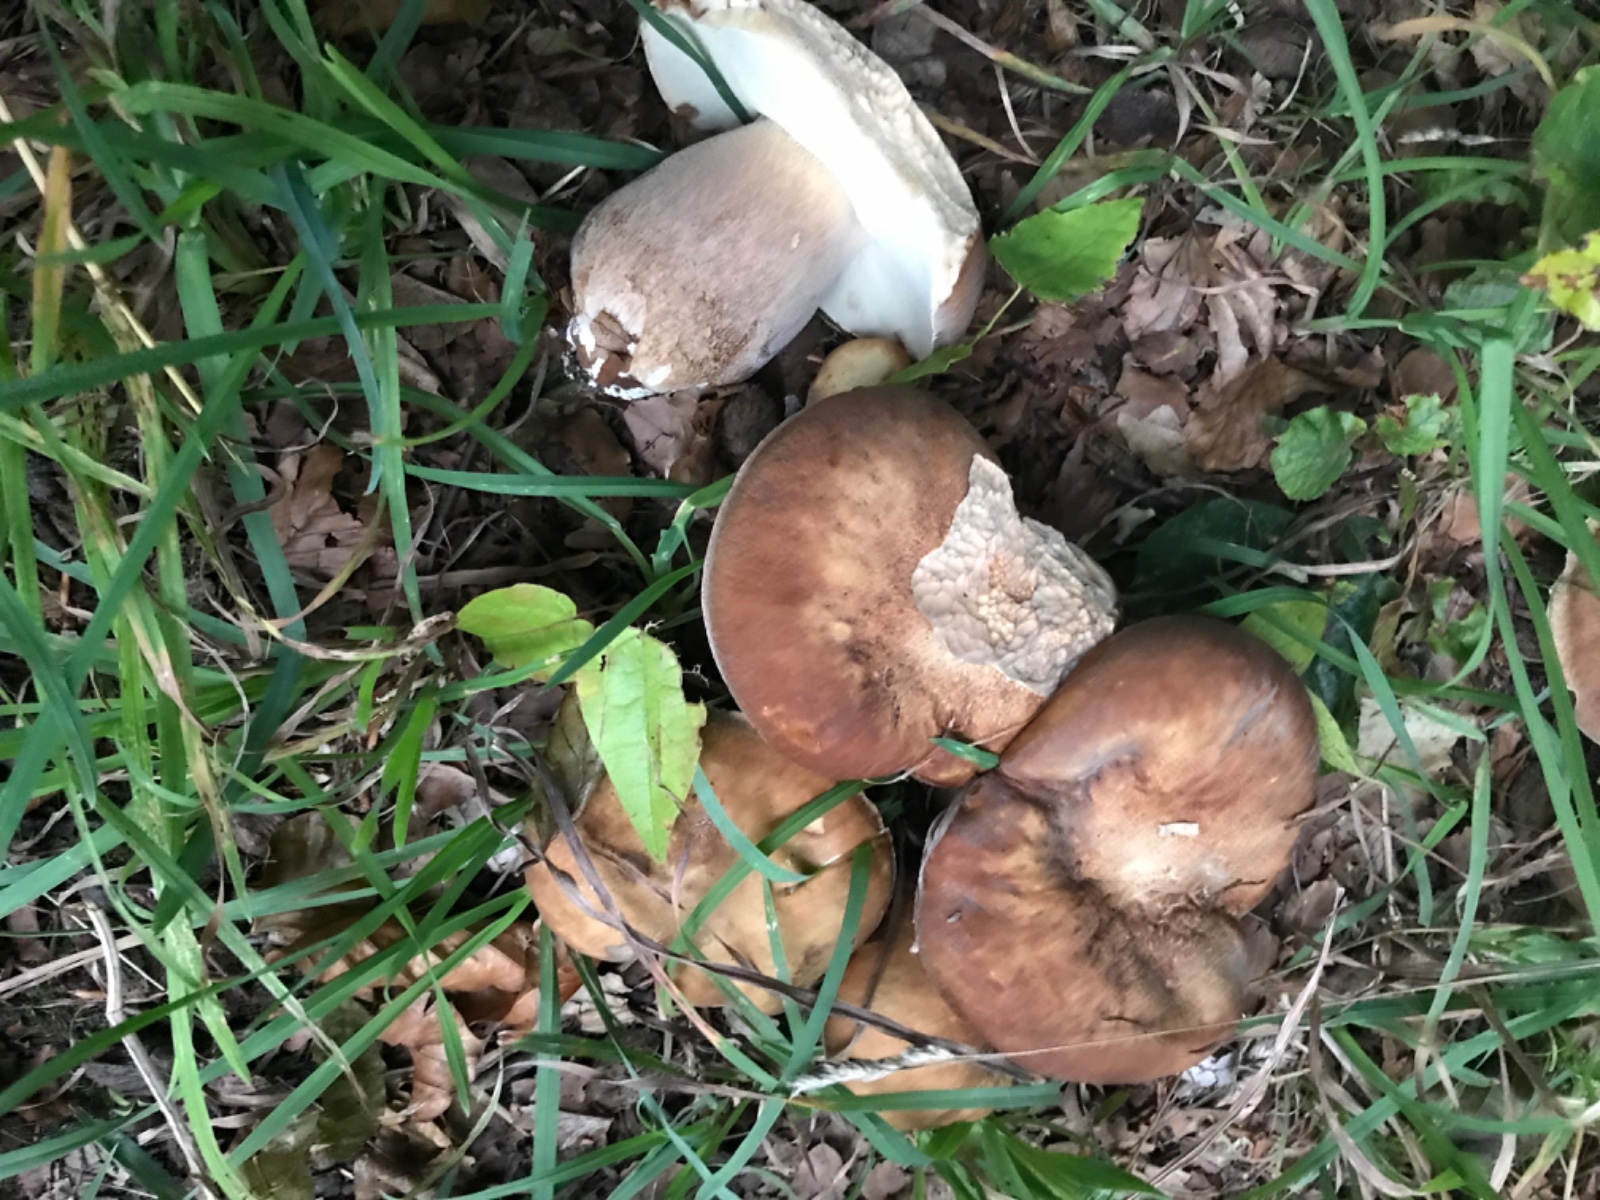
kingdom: Fungi
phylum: Basidiomycota
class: Agaricomycetes
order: Boletales
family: Boletaceae
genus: Boletus
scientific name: Boletus reticulatus
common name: sommer-rørhat
